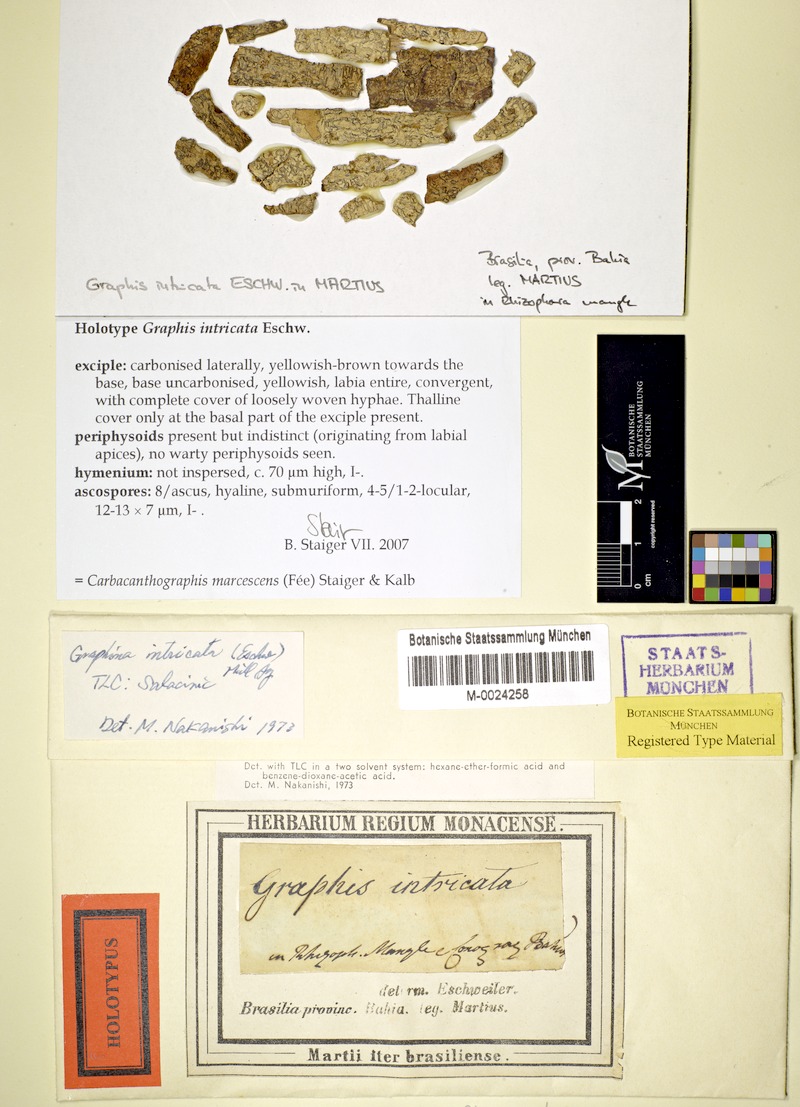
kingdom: Fungi
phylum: Ascomycota
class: Lecanoromycetes
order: Ostropales
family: Graphidaceae
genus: Graphina
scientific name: Graphina marcescens
